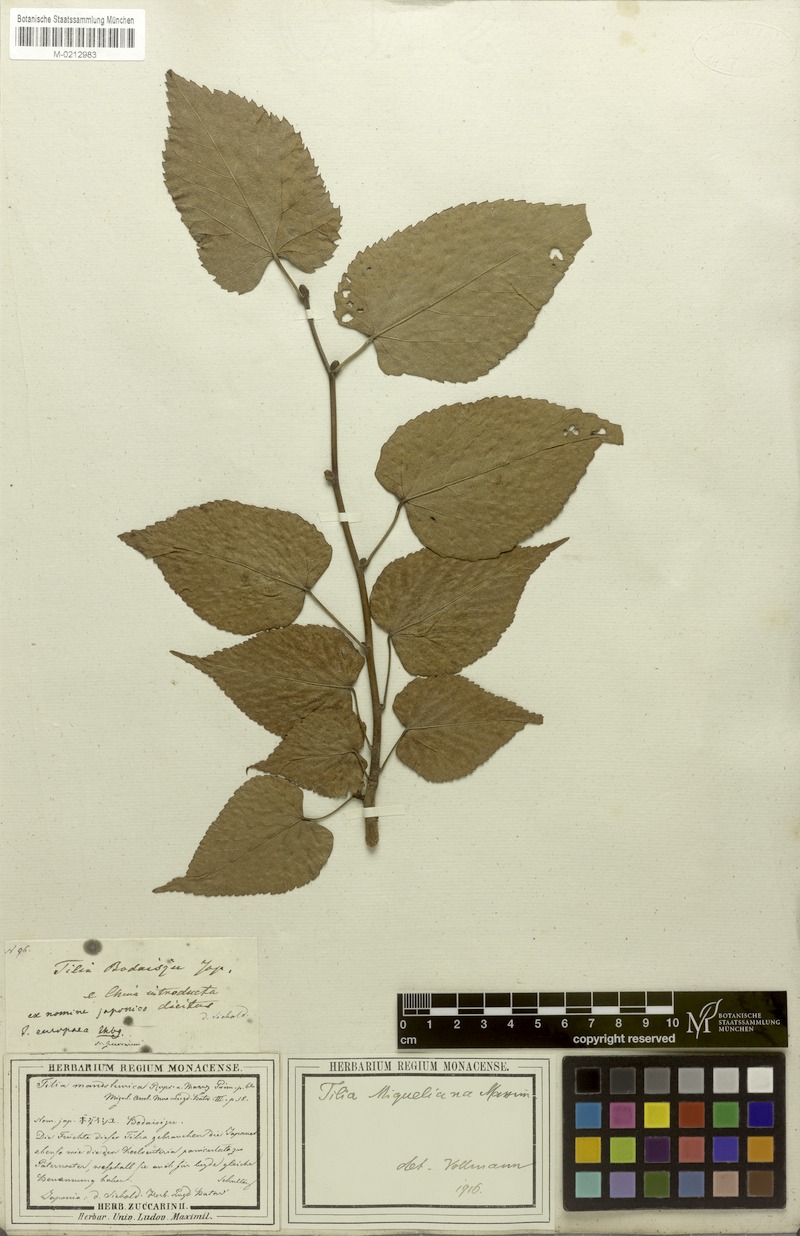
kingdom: Plantae
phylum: Tracheophyta
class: Magnoliopsida
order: Malvales
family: Malvaceae
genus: Tilia
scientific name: Tilia miqueliana
